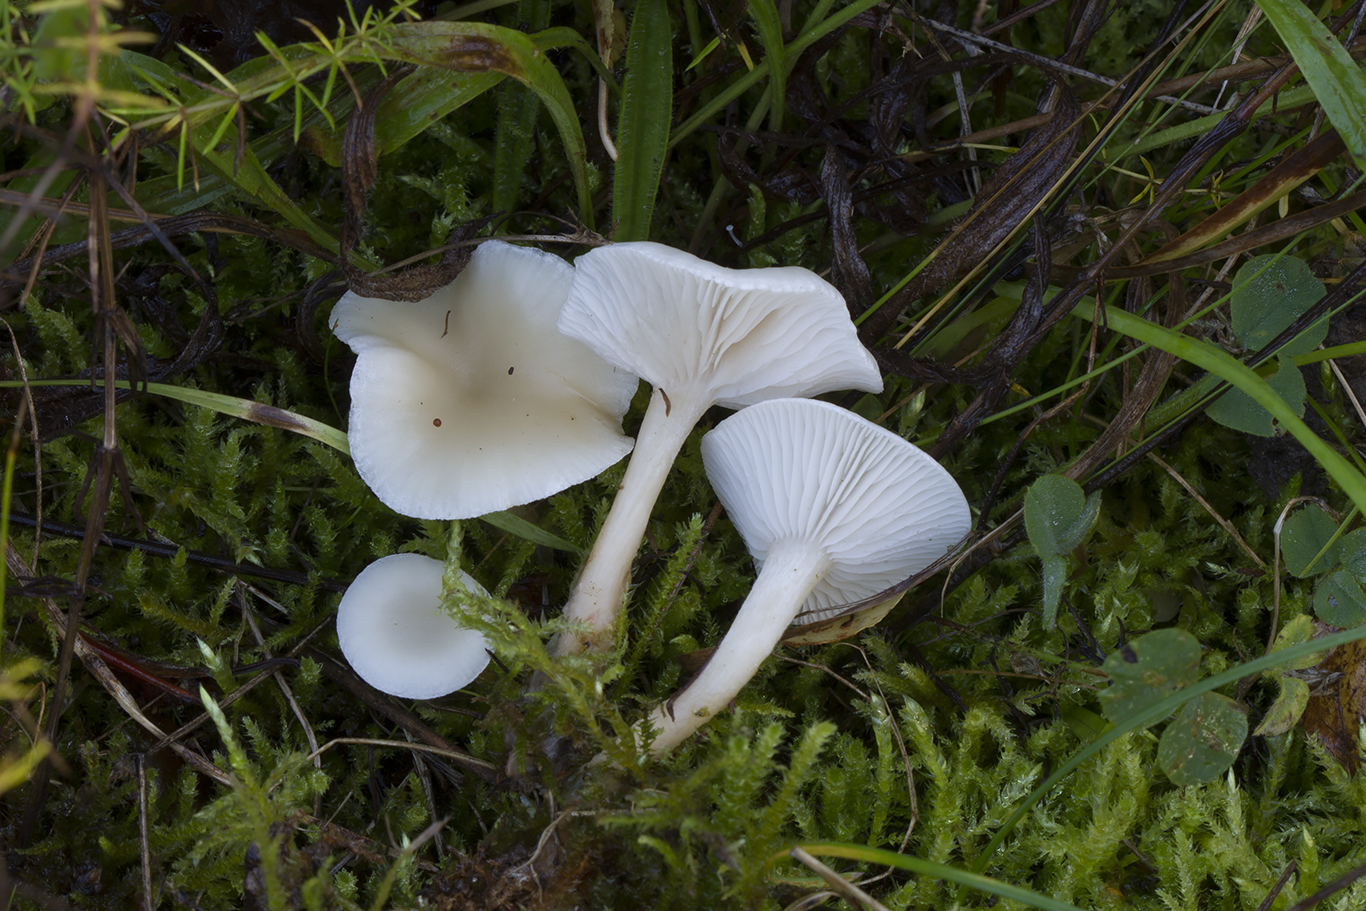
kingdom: Fungi
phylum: Basidiomycota
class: Agaricomycetes
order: Agaricales
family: Tricholomataceae
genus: Clitocybe
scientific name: Clitocybe agrestis
